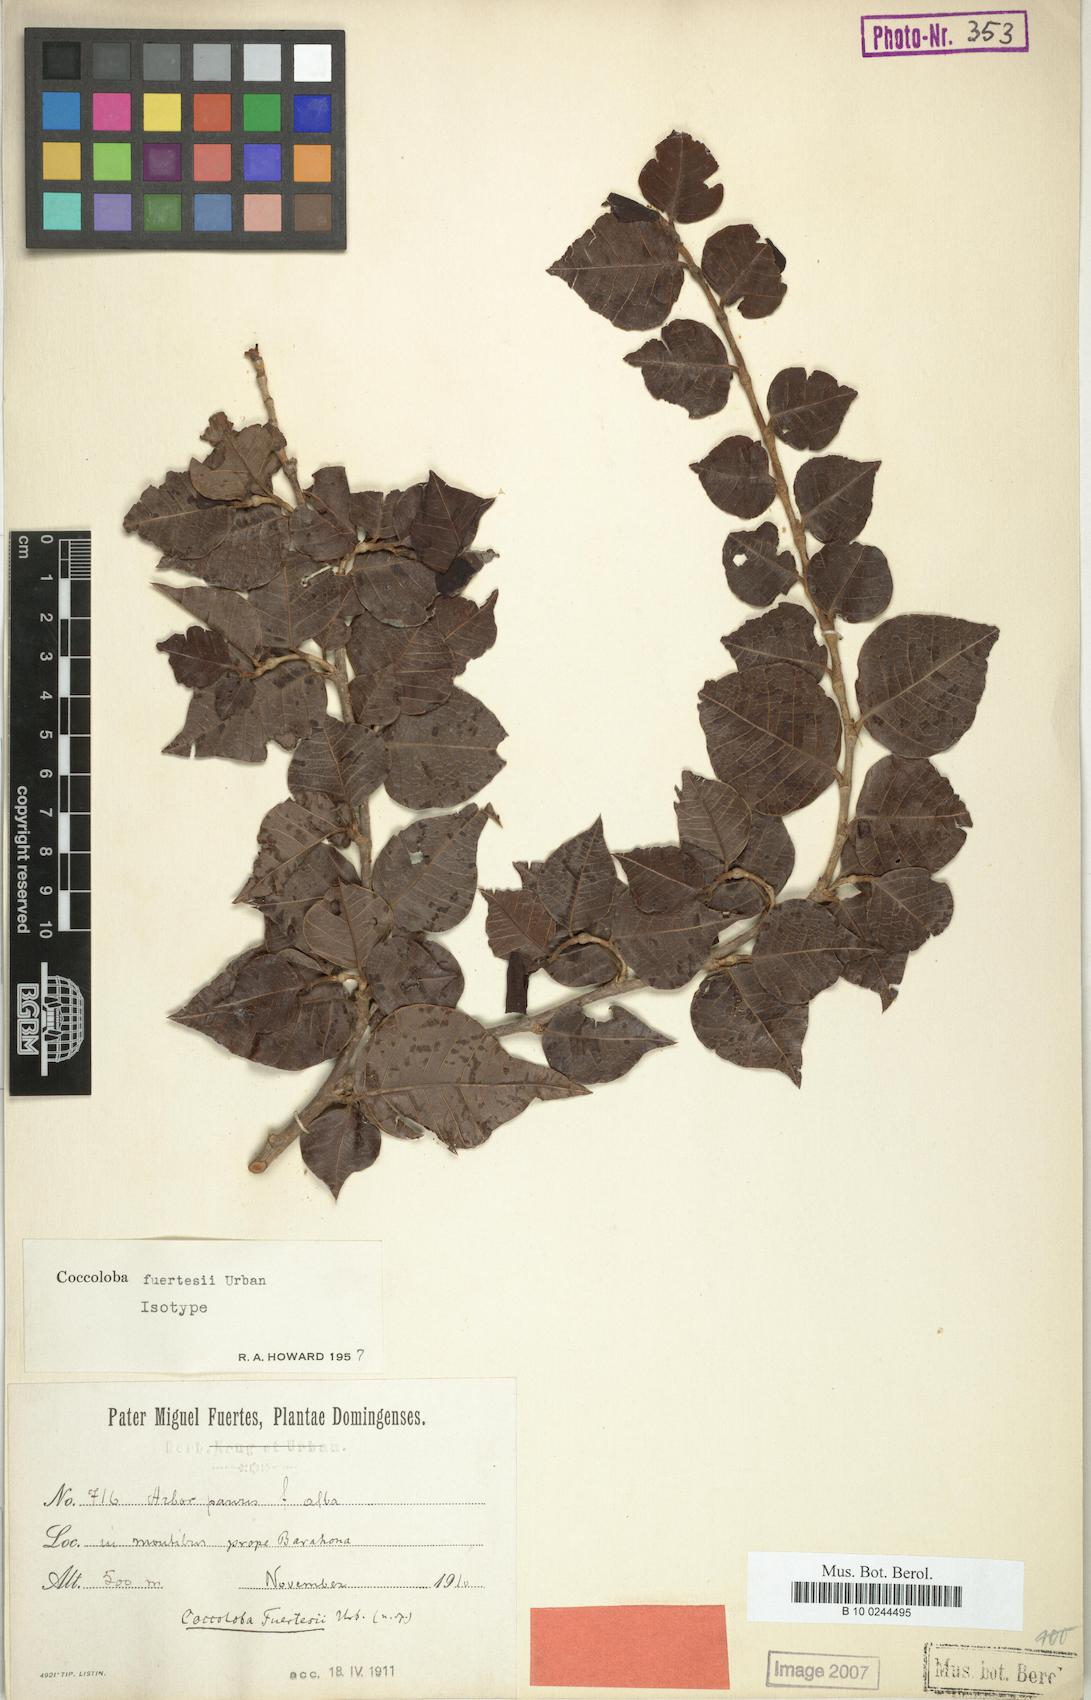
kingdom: Plantae
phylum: Tracheophyta
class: Magnoliopsida
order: Caryophyllales
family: Polygonaceae
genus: Coccoloba
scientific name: Coccoloba fuertesii
